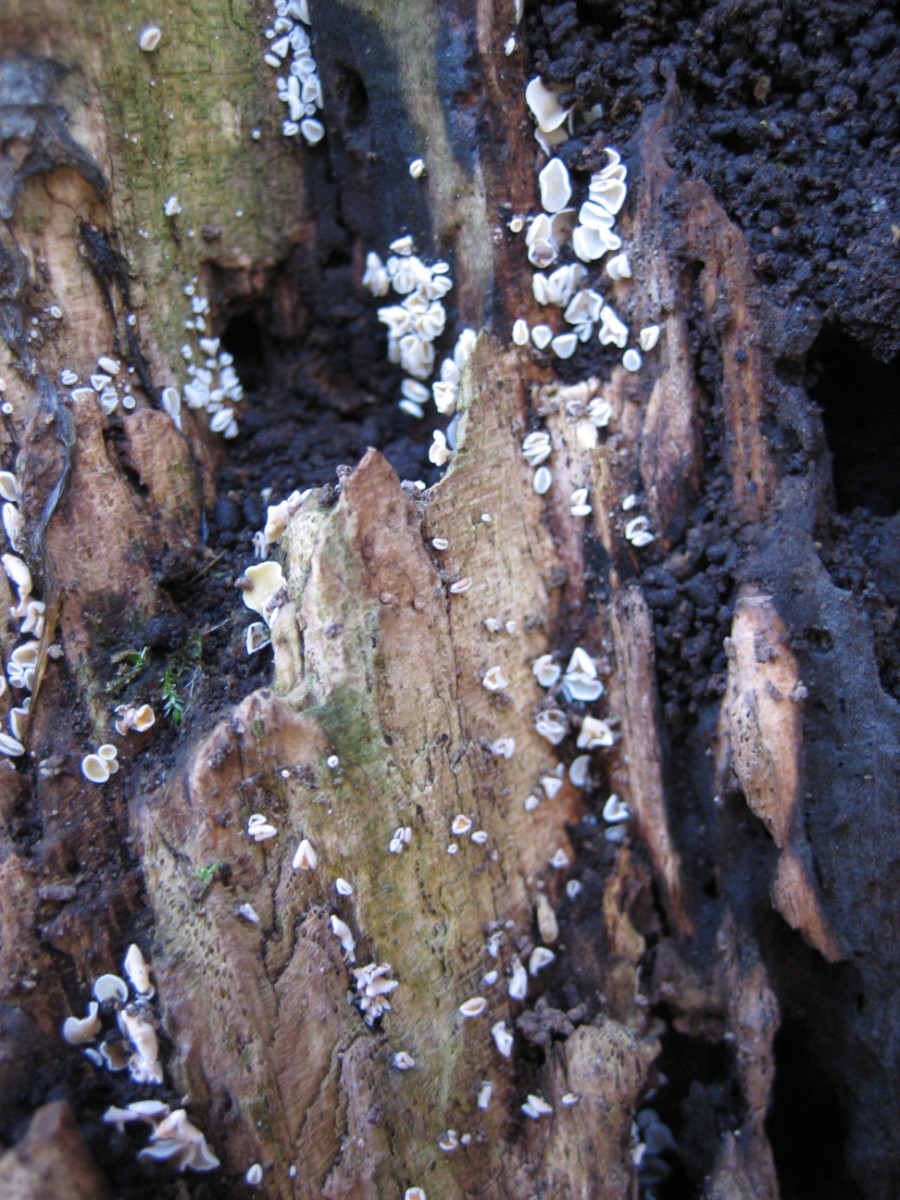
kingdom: Fungi
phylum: Ascomycota
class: Leotiomycetes
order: Helotiales
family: Lachnaceae
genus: Lachnum
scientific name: Lachnum
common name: frynseskive
